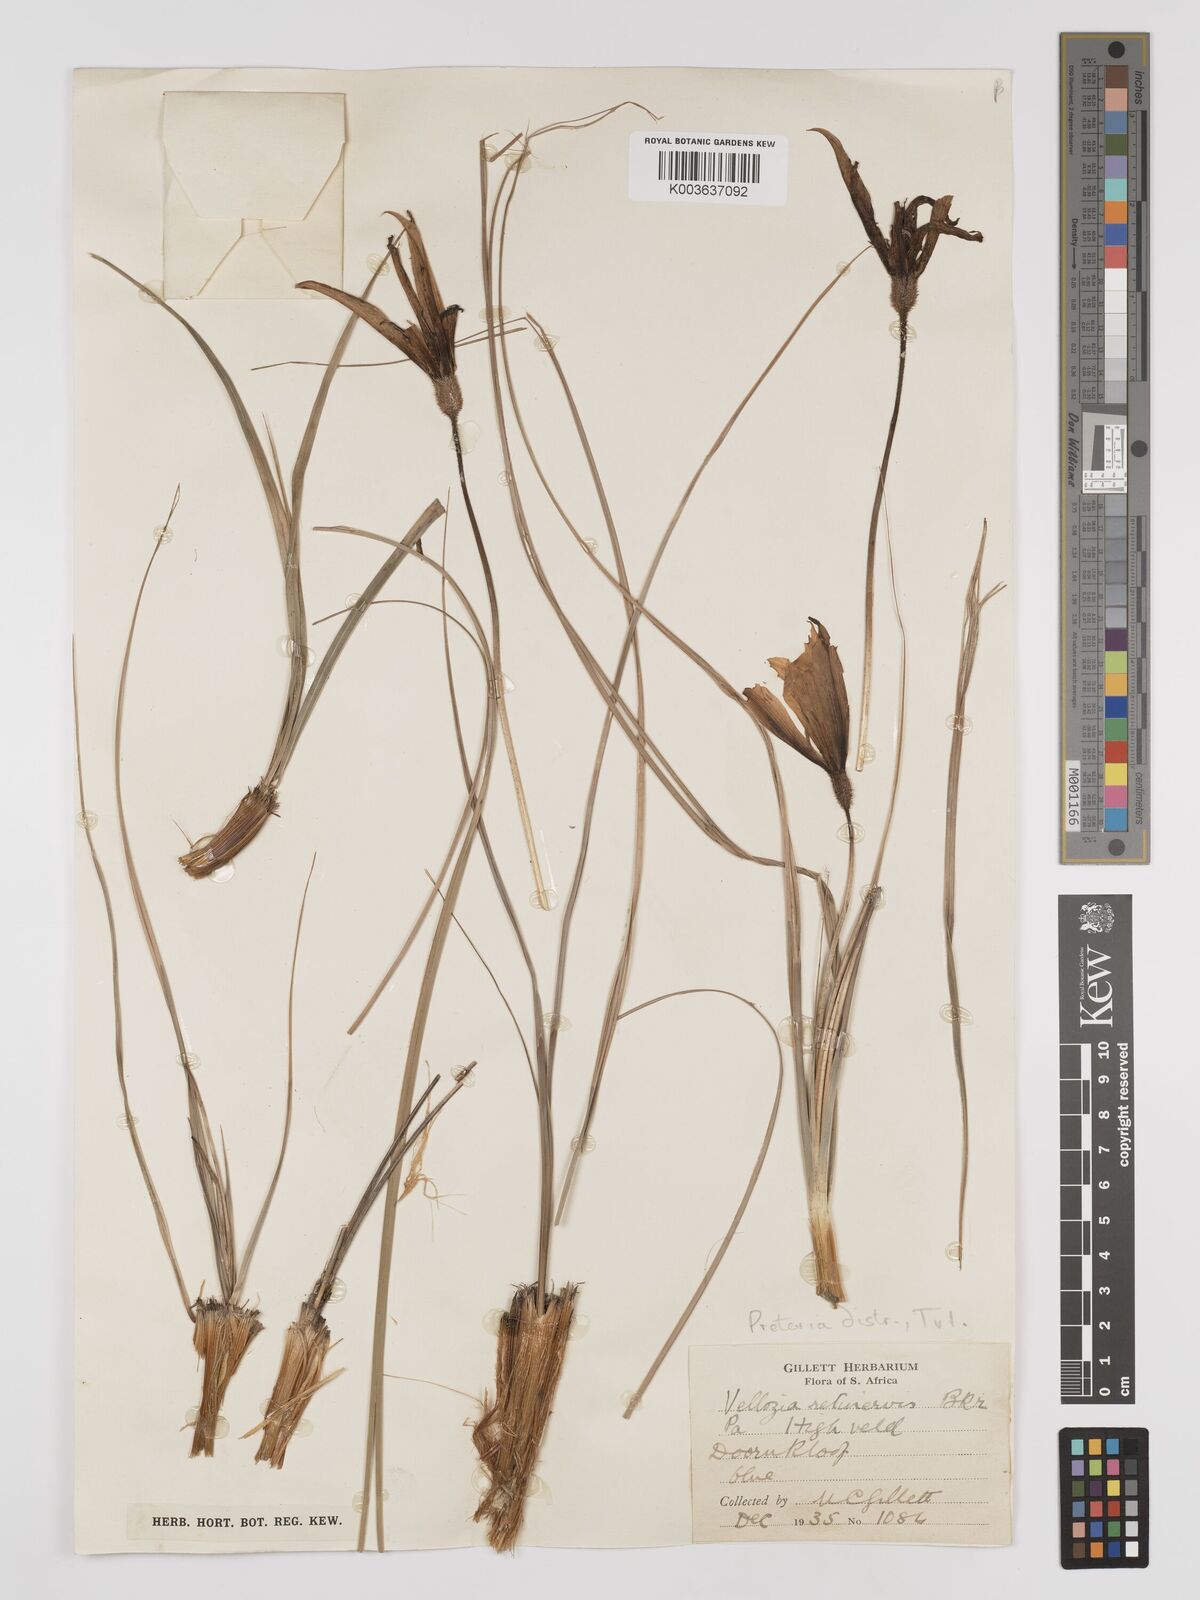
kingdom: Plantae
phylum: Tracheophyta
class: Liliopsida
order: Pandanales
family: Velloziaceae
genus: Xerophyta
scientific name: Xerophyta retinervis
